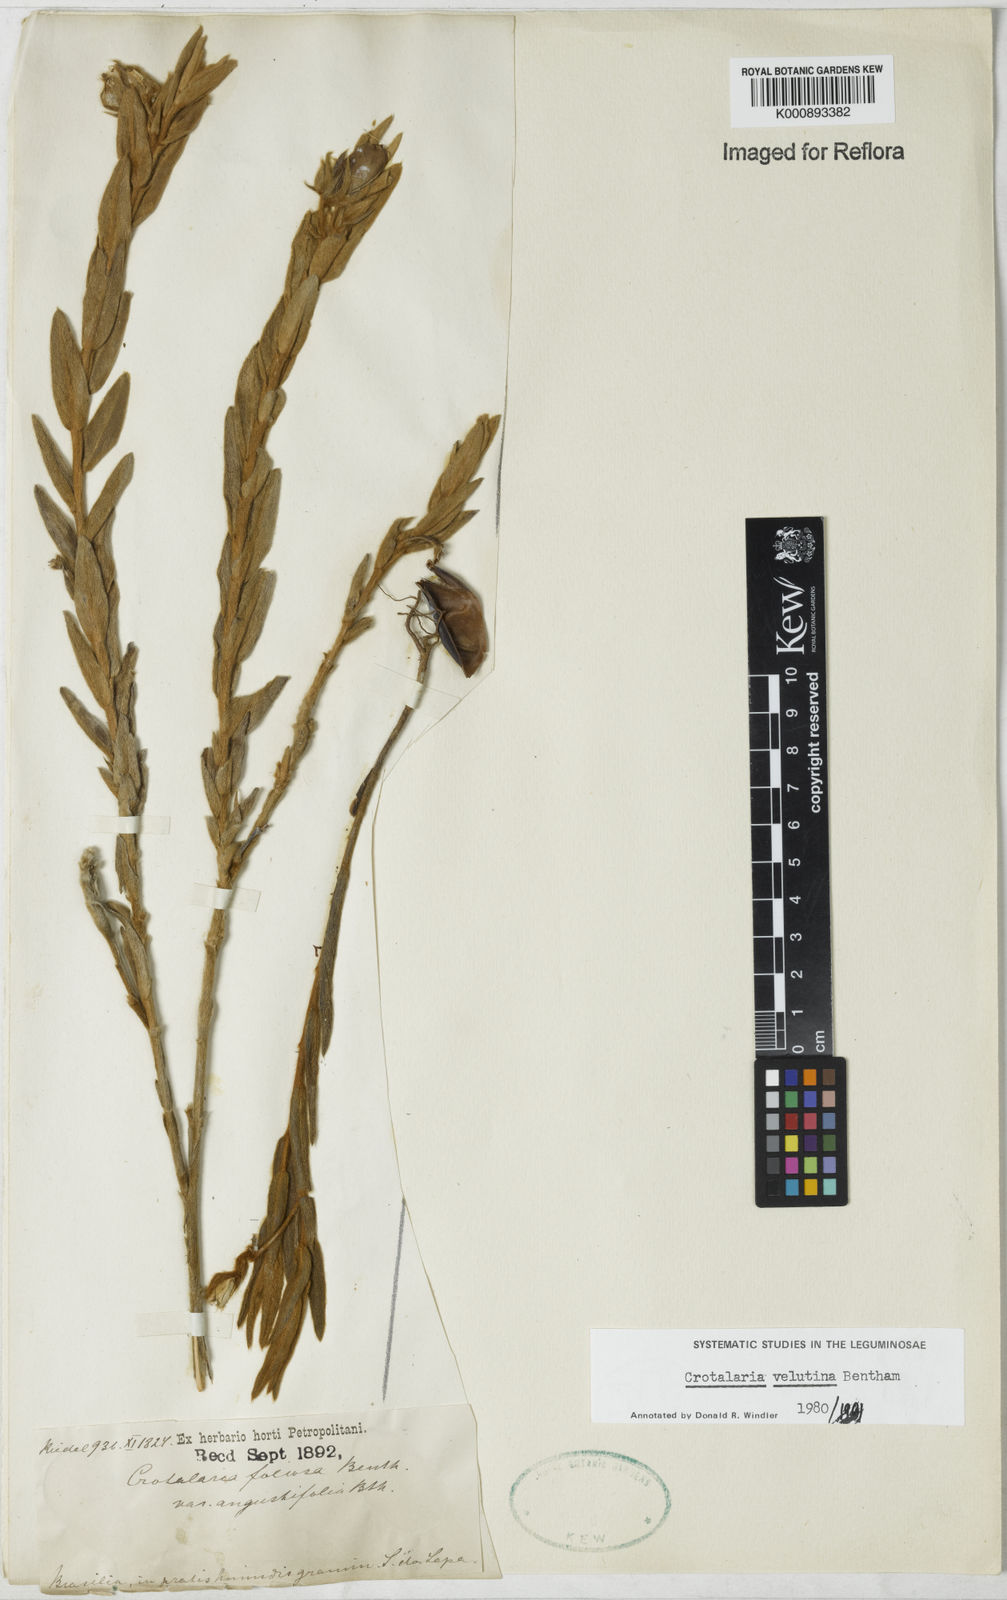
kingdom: Plantae
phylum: Tracheophyta
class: Magnoliopsida
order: Fabales
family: Fabaceae
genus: Crotalaria
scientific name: Crotalaria velutina
